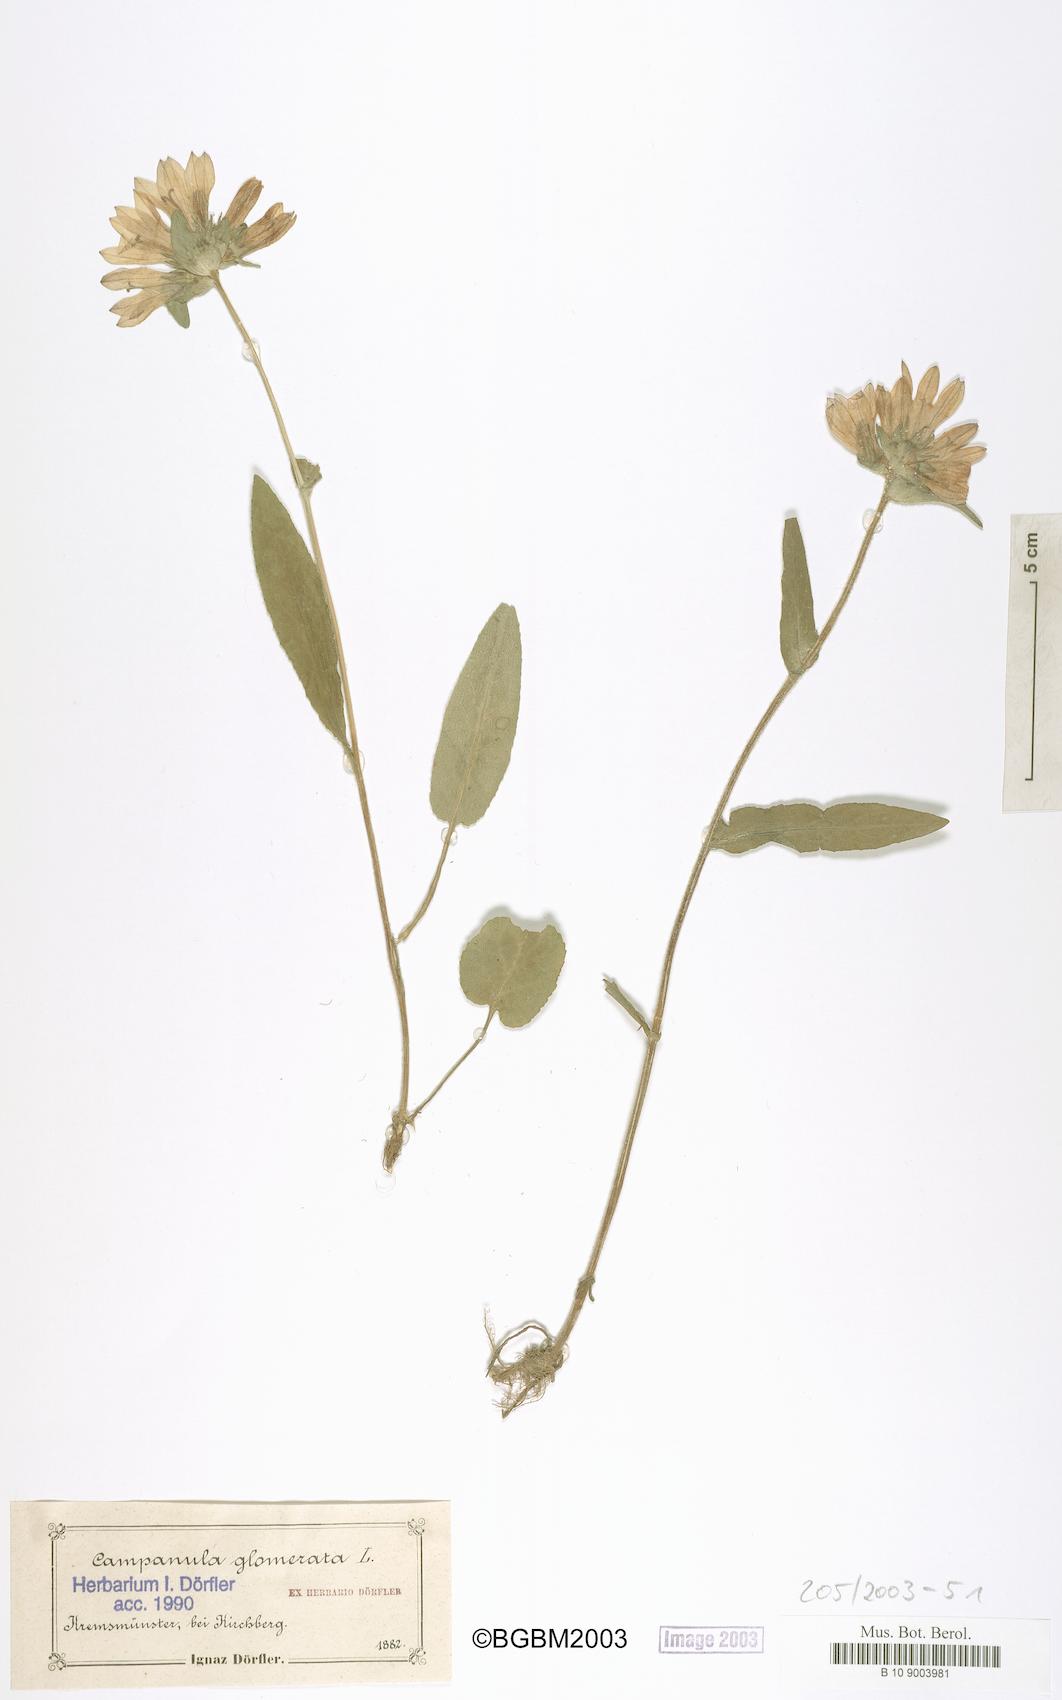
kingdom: Plantae
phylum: Tracheophyta
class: Magnoliopsida
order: Asterales
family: Campanulaceae
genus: Campanula
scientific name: Campanula glomerata
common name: Clustered bellflower
